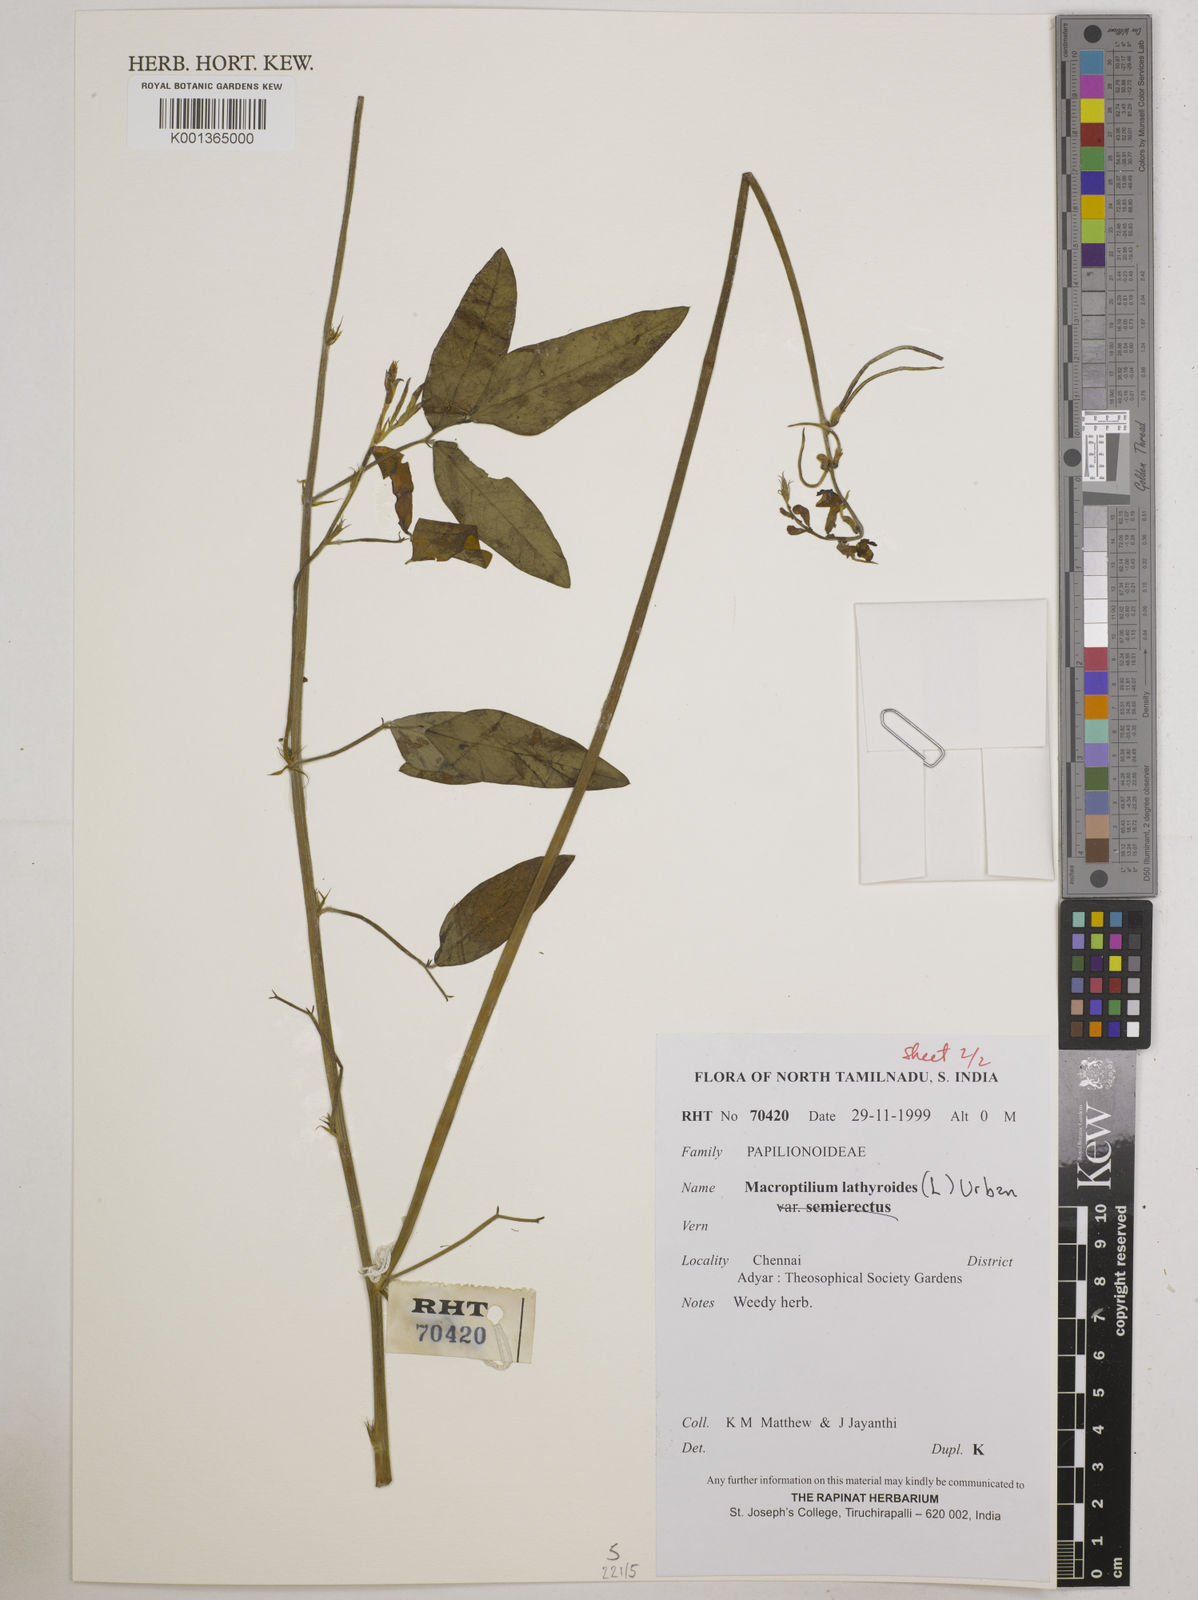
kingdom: Plantae
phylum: Tracheophyta
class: Magnoliopsida
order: Fabales
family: Fabaceae
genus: Macroptilium
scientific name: Macroptilium lathyroides
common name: Wild bushbean
